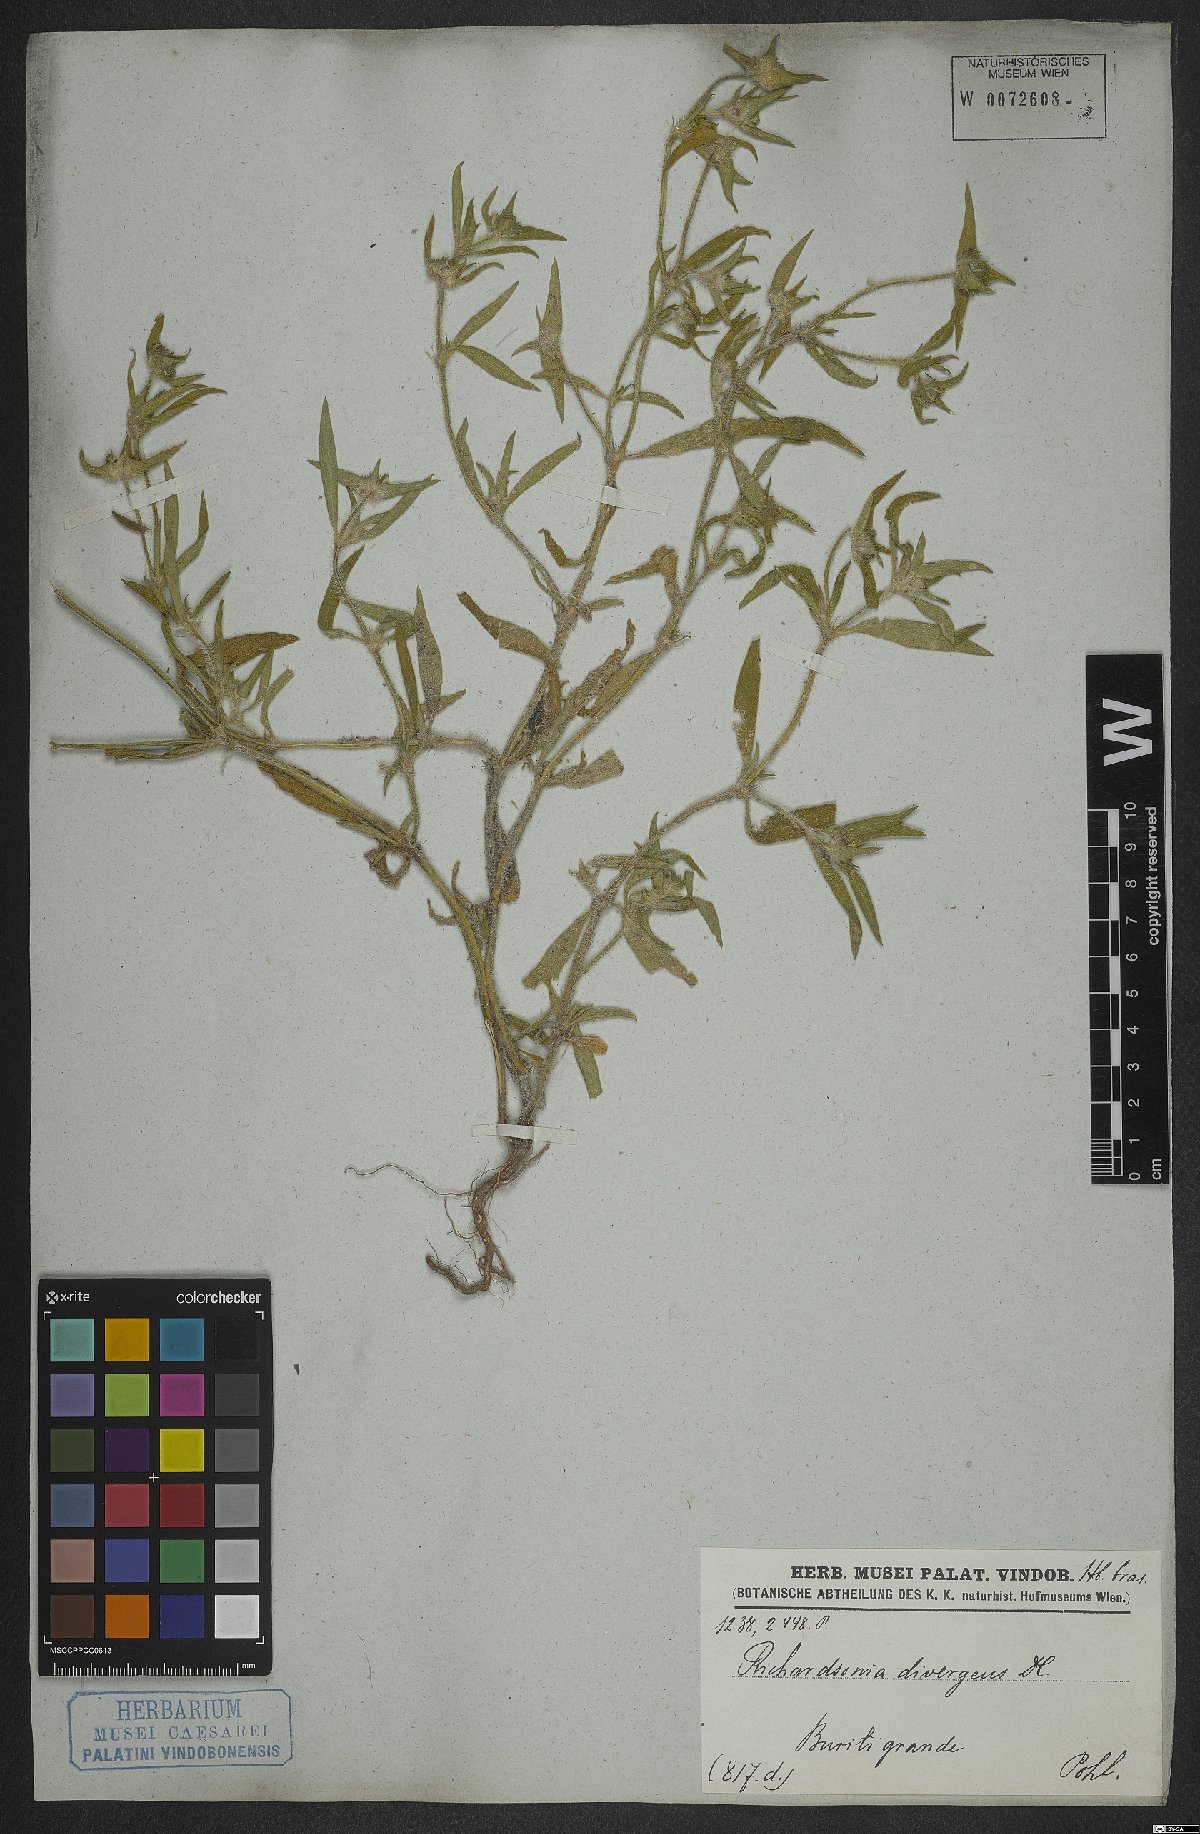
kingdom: Plantae
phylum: Tracheophyta
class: Magnoliopsida
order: Gentianales
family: Rubiaceae
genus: Richardia
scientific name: Richardia scabra
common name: Rough mexican clover
